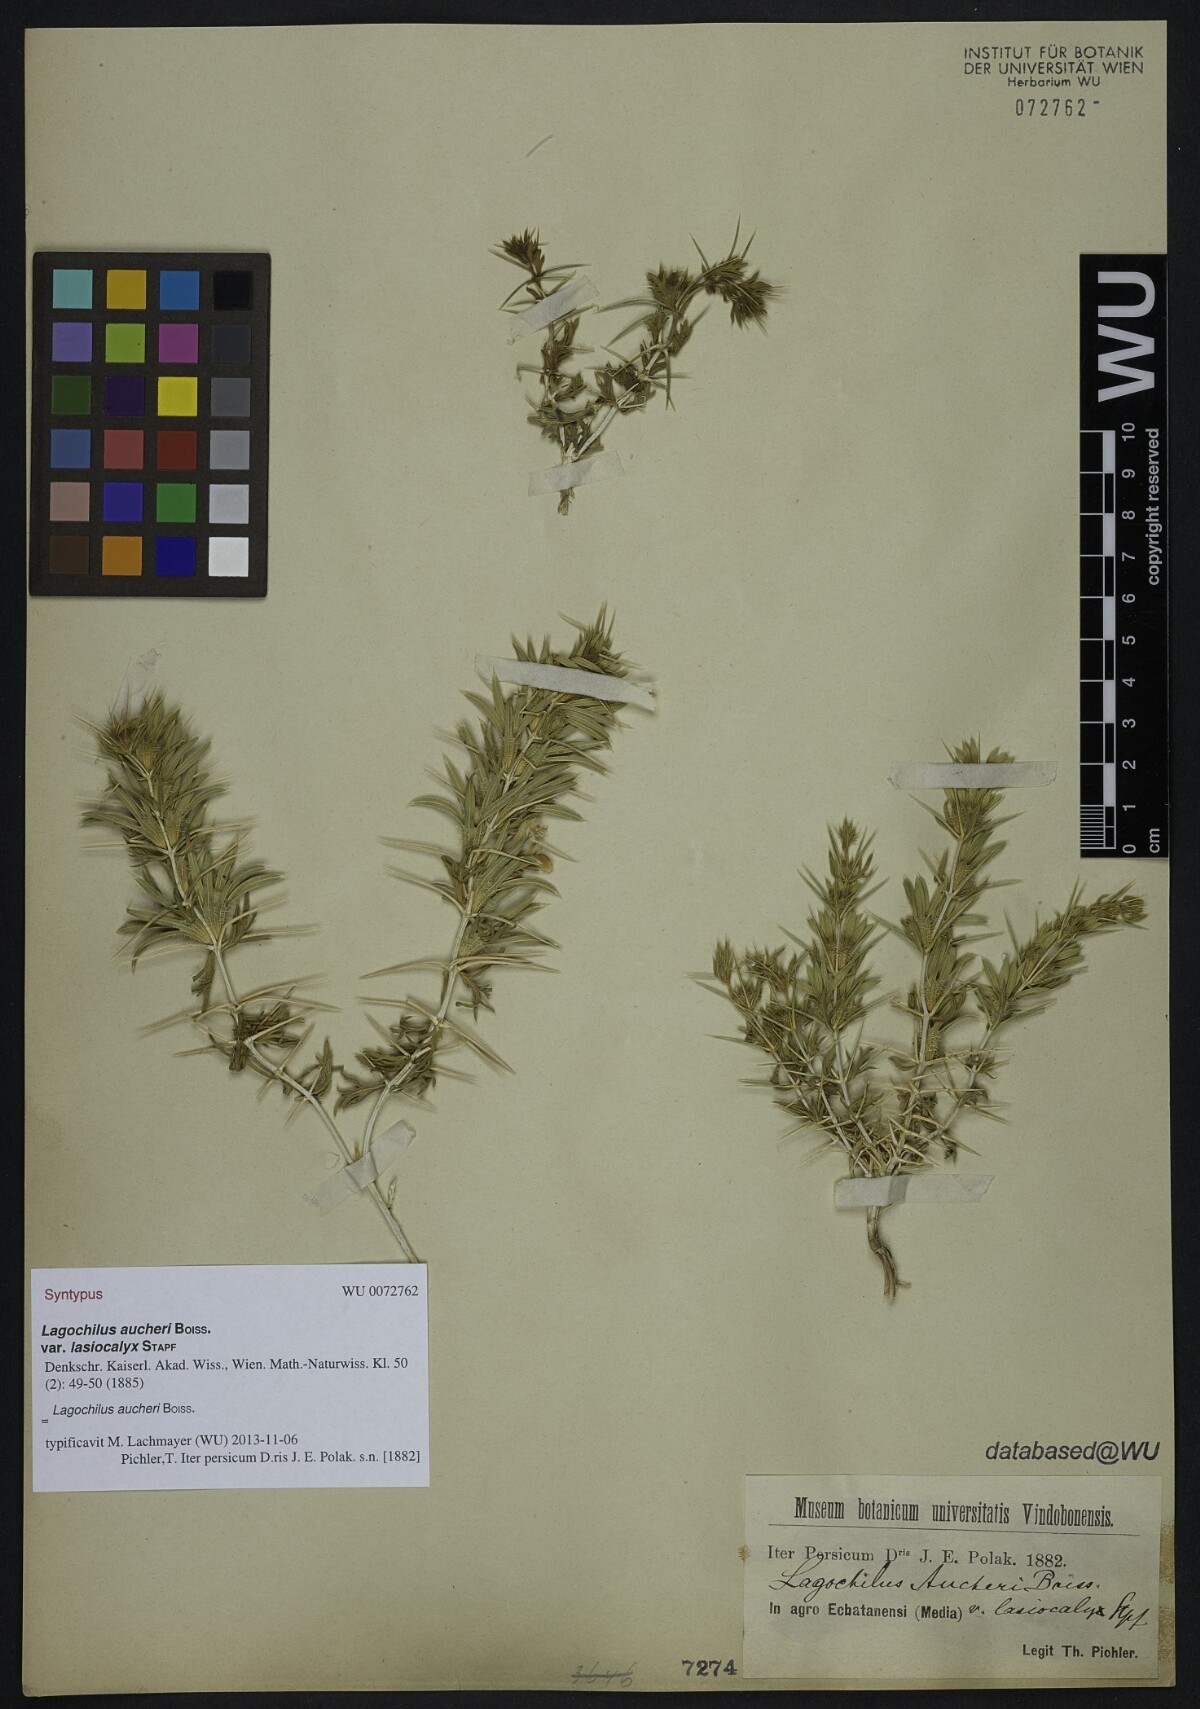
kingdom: Plantae
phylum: Tracheophyta
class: Magnoliopsida
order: Lamiales
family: Lamiaceae
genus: Lagochilus
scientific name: Lagochilus aucheri
